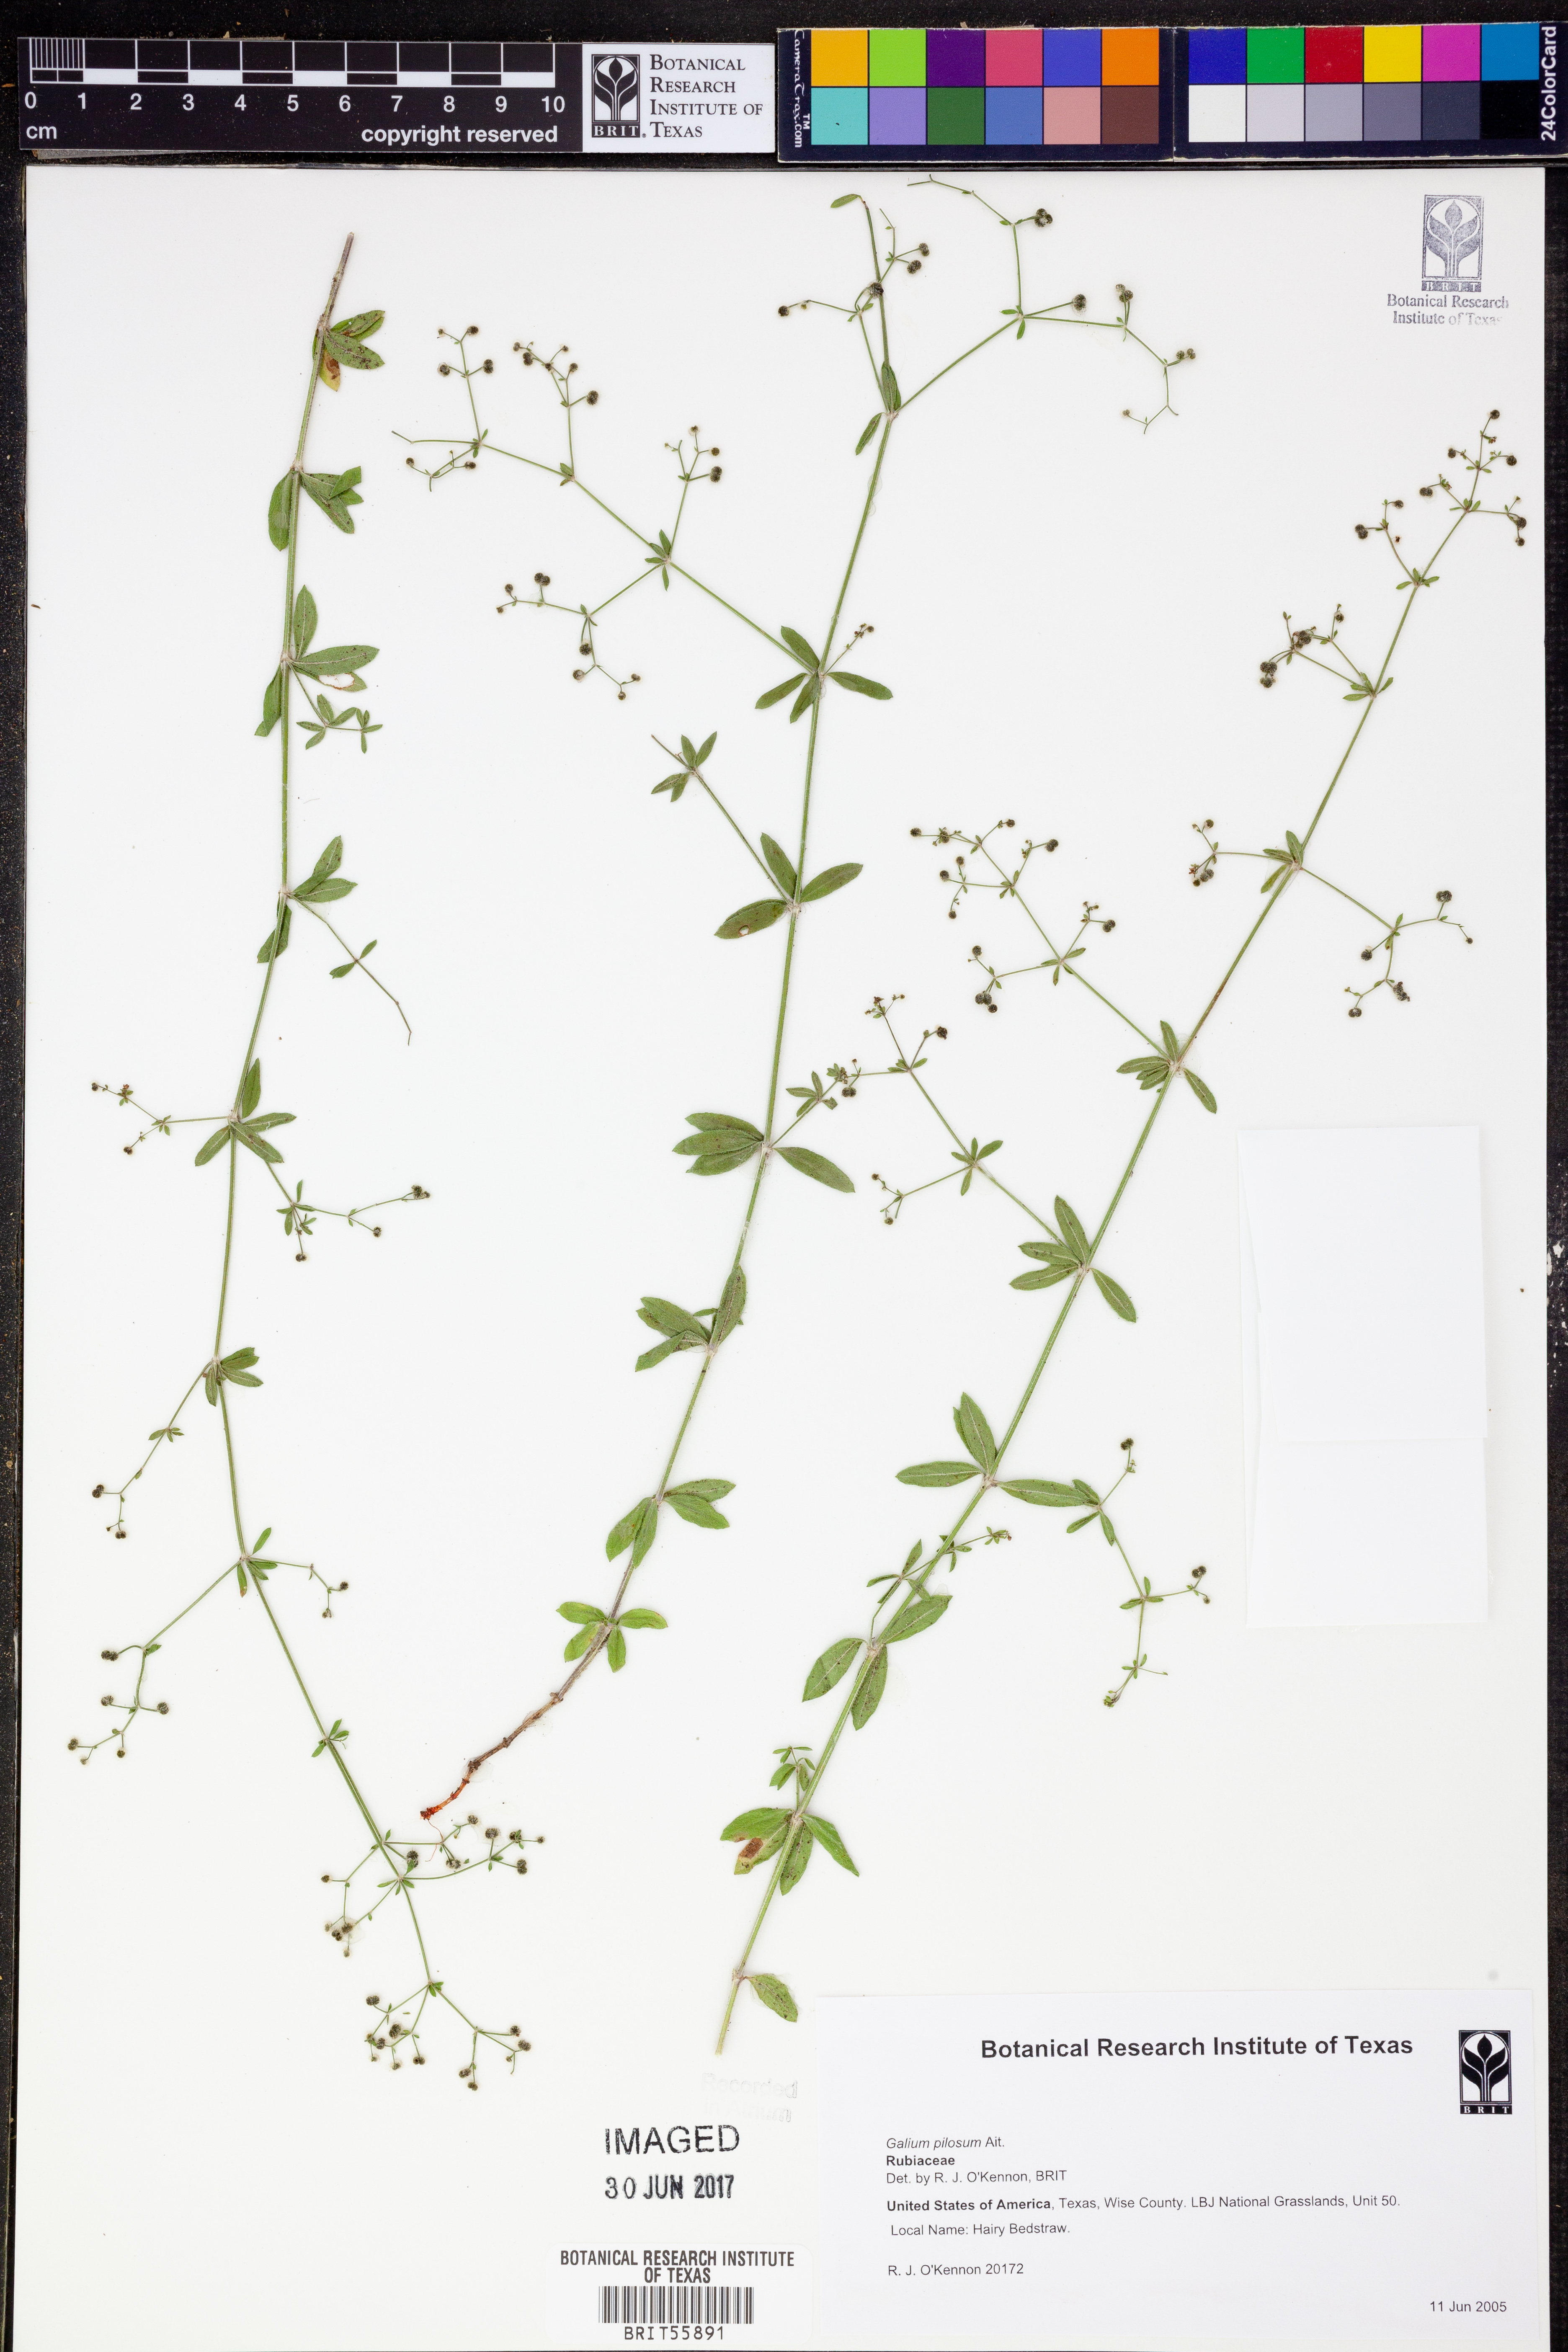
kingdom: Plantae
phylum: Tracheophyta
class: Magnoliopsida
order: Gentianales
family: Rubiaceae
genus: Galium
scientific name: Galium pilosum
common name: Hairy bedstraw
